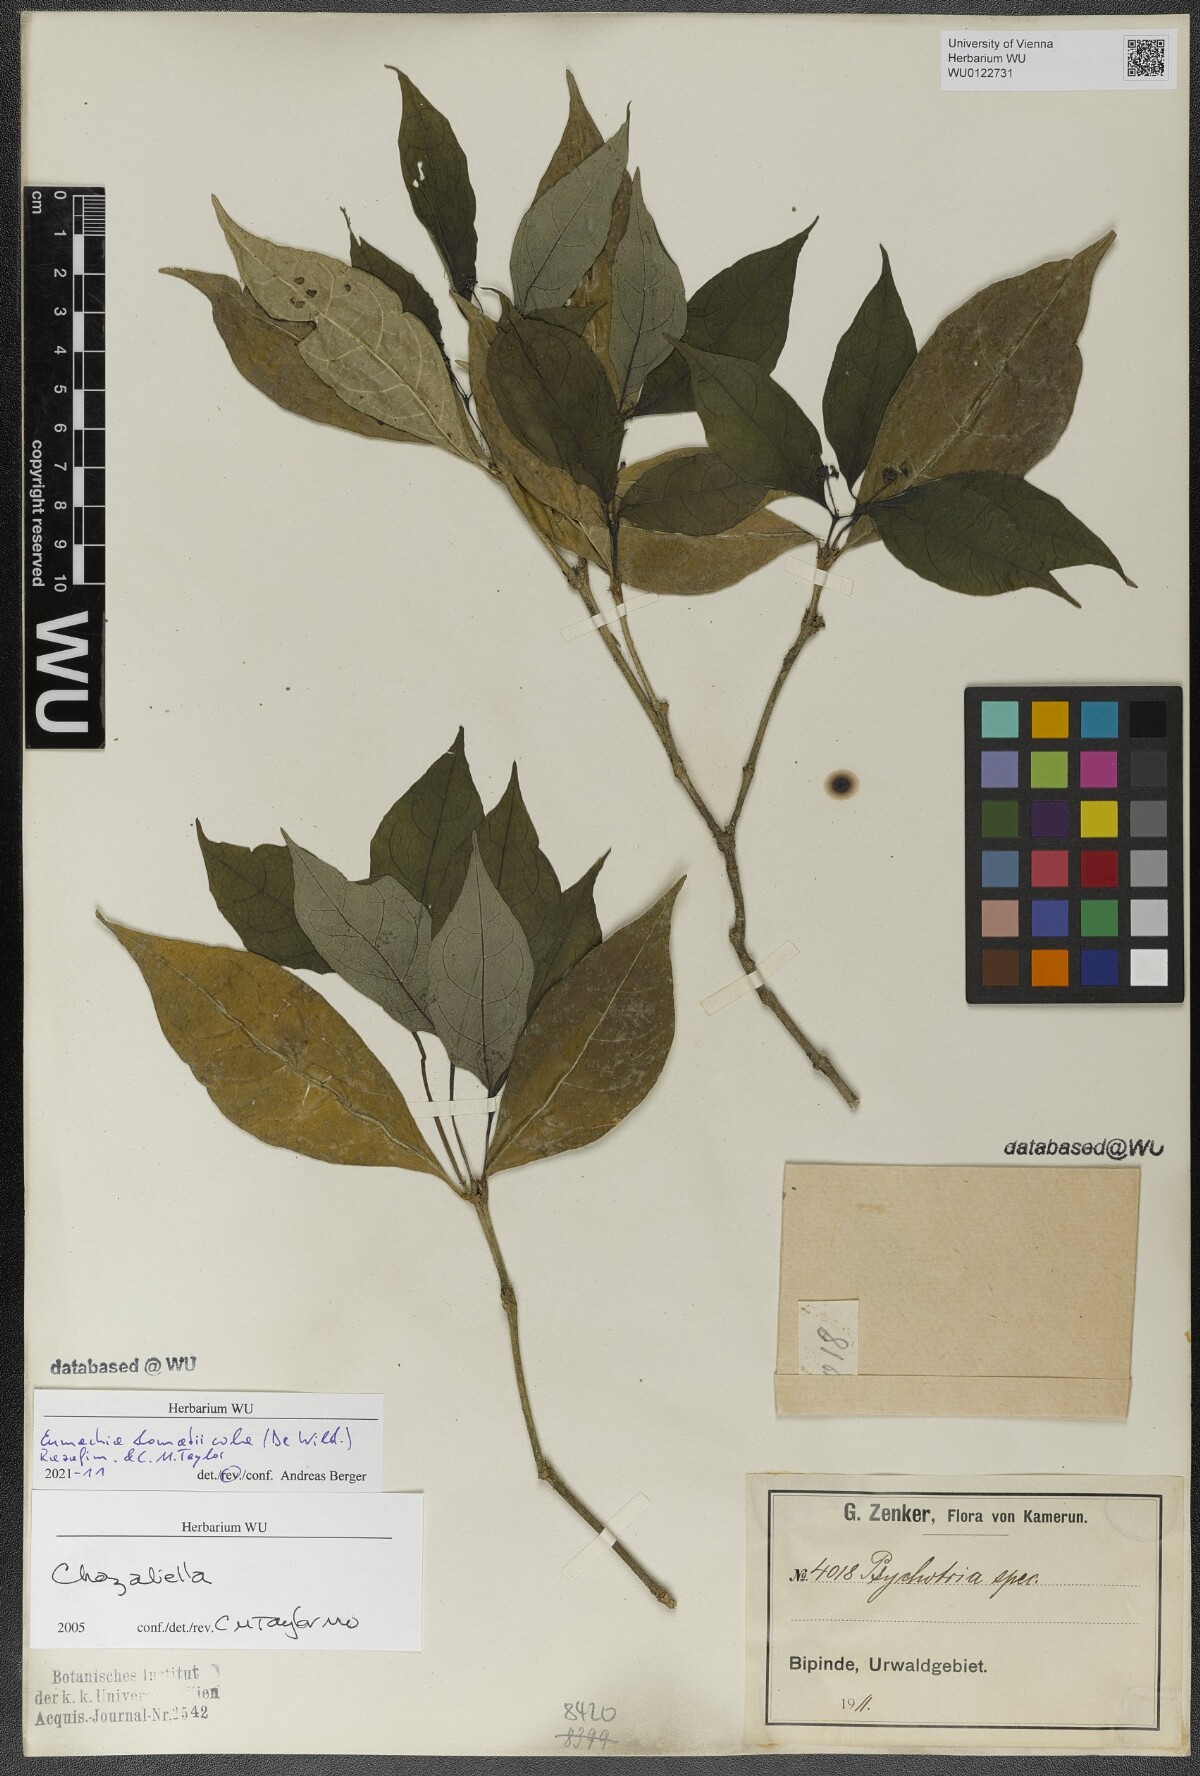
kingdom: Plantae
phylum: Tracheophyta
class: Magnoliopsida
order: Gentianales
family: Rubiaceae
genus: Eumachia
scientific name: Eumachia domatiicola
